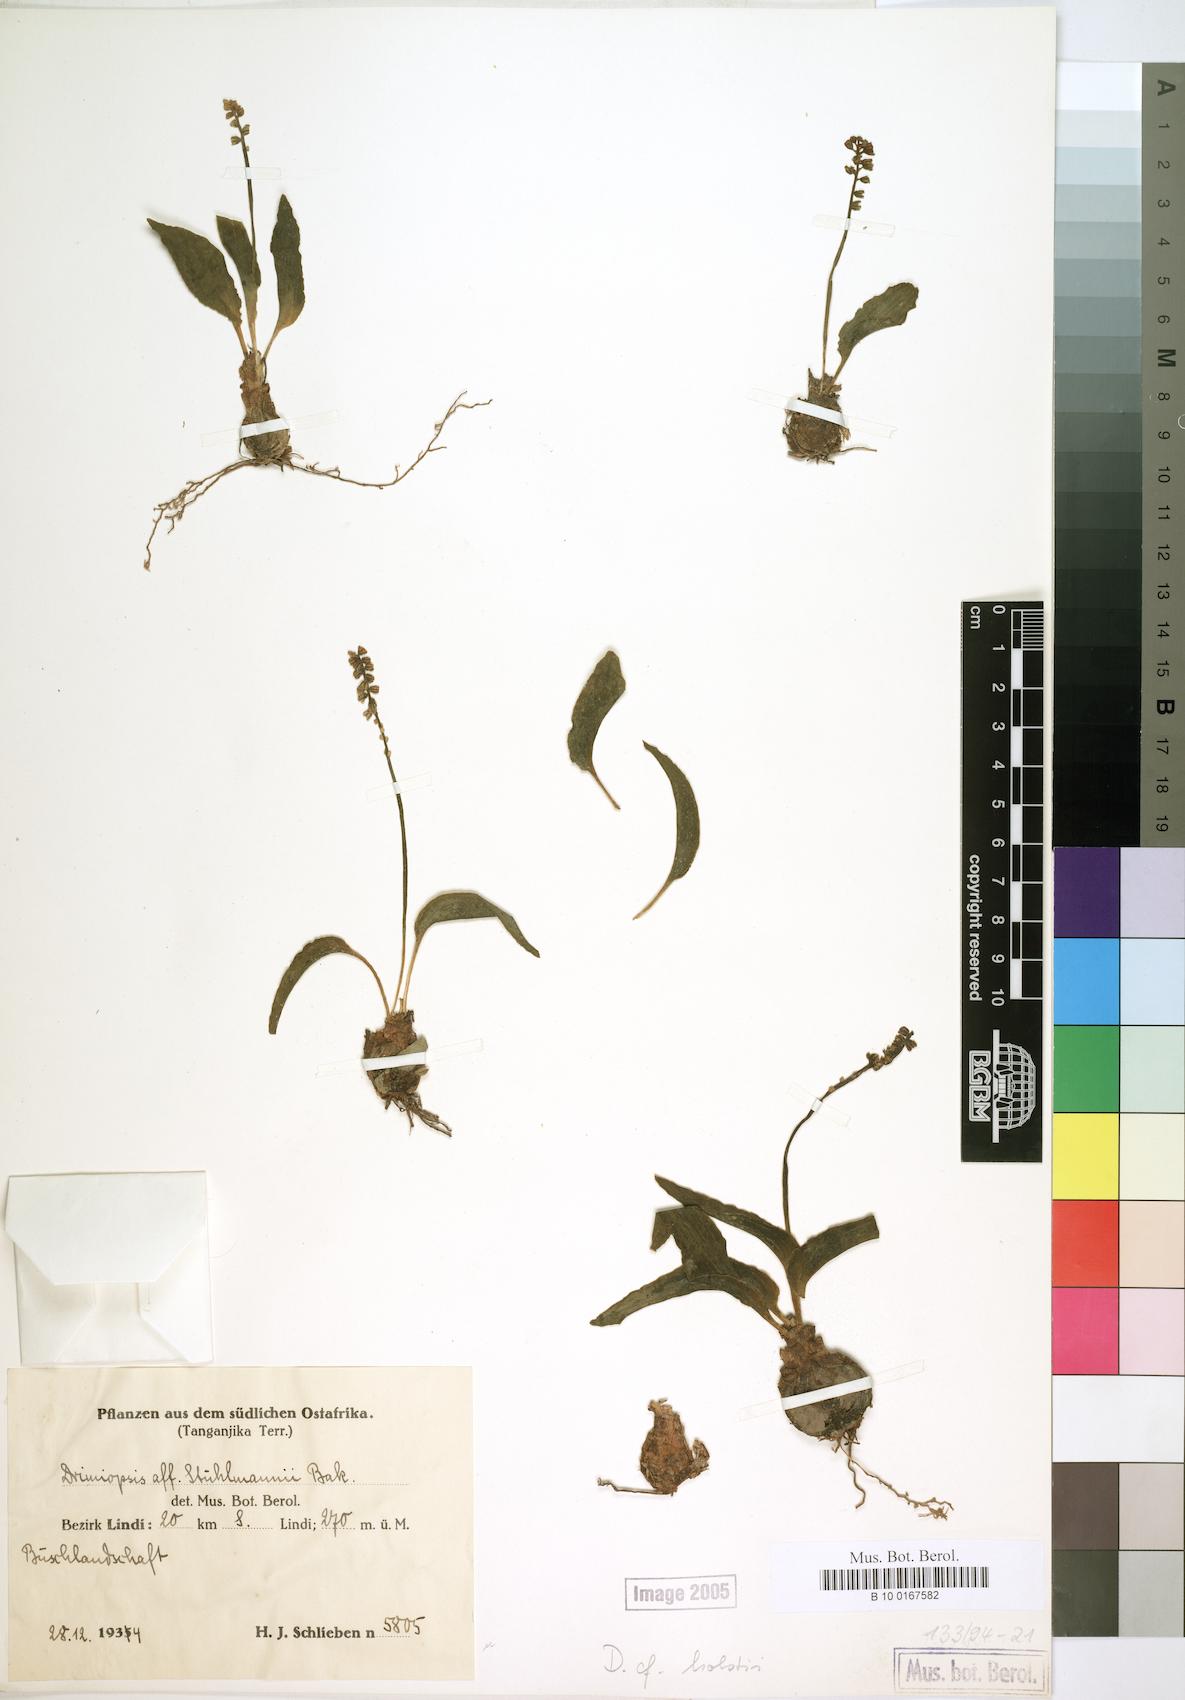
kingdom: Plantae
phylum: Tracheophyta
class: Liliopsida
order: Asparagales
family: Asparagaceae
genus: Drimiopsis
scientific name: Drimiopsis botryoides
